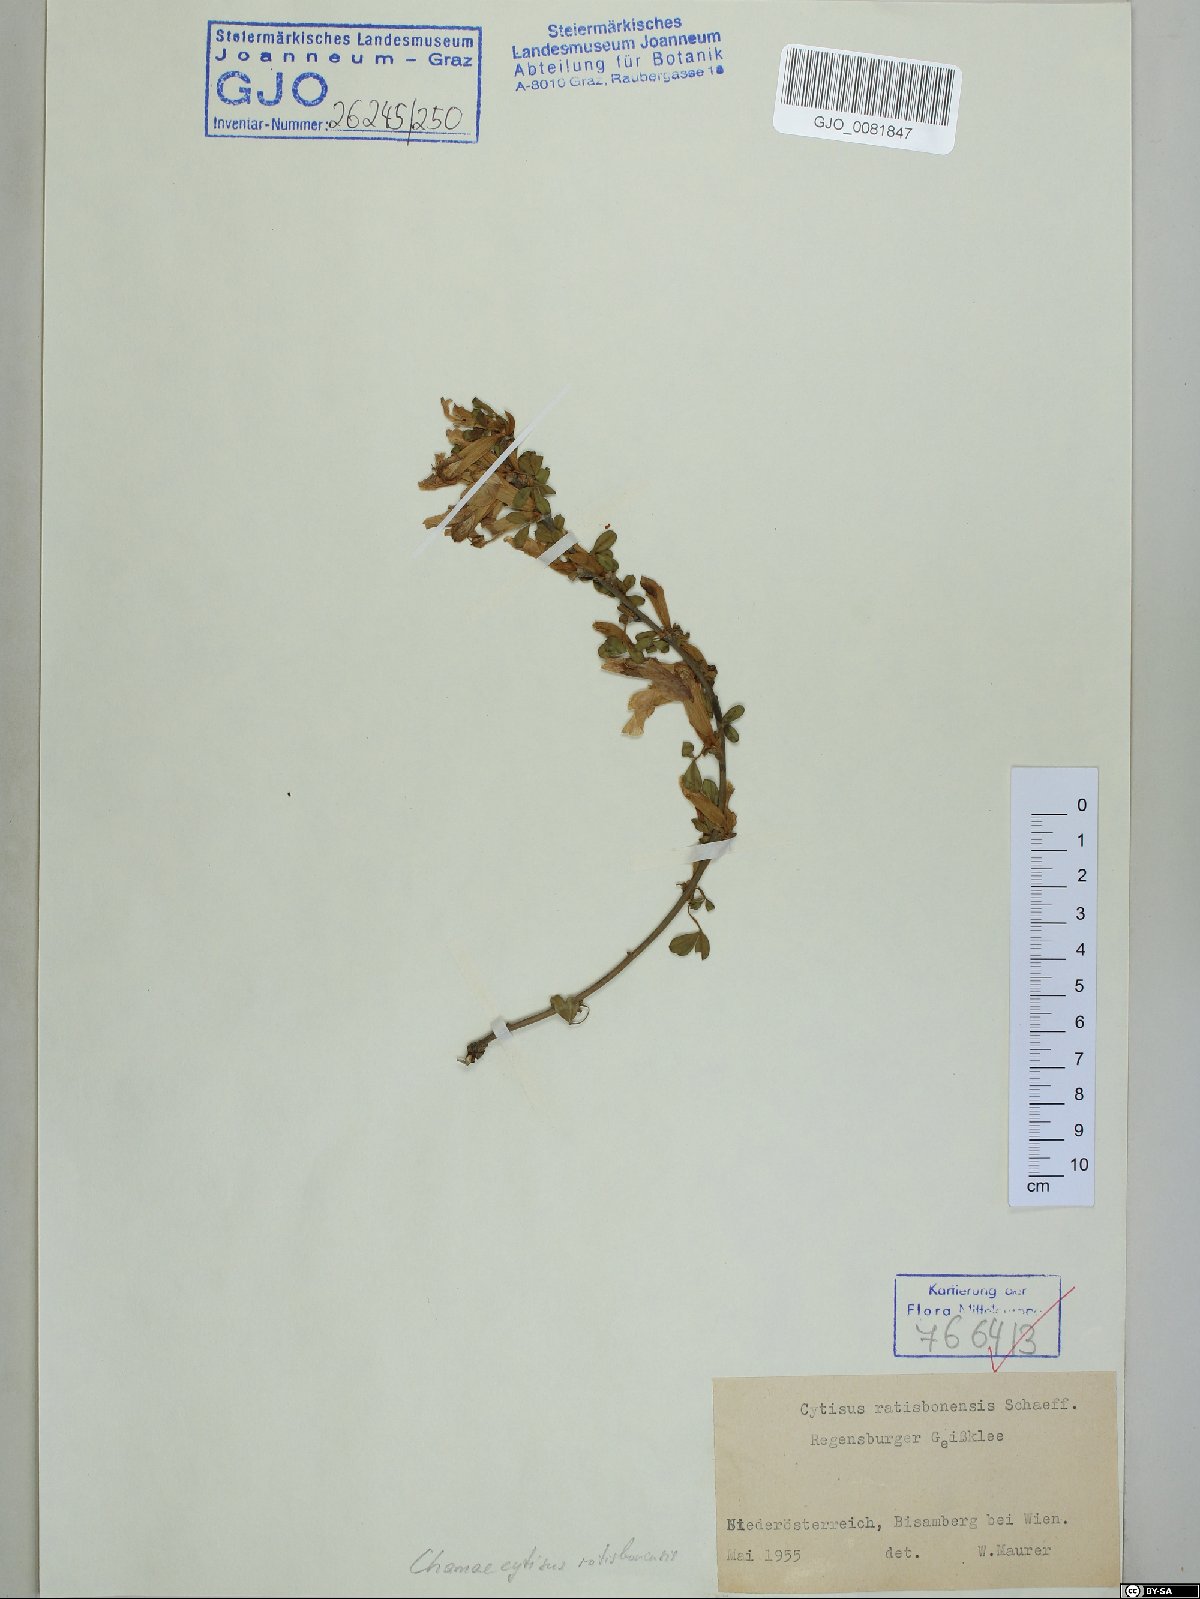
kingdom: Plantae
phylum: Tracheophyta
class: Magnoliopsida
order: Fabales
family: Fabaceae
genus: Chamaecytisus
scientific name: Chamaecytisus ratisbonensis
